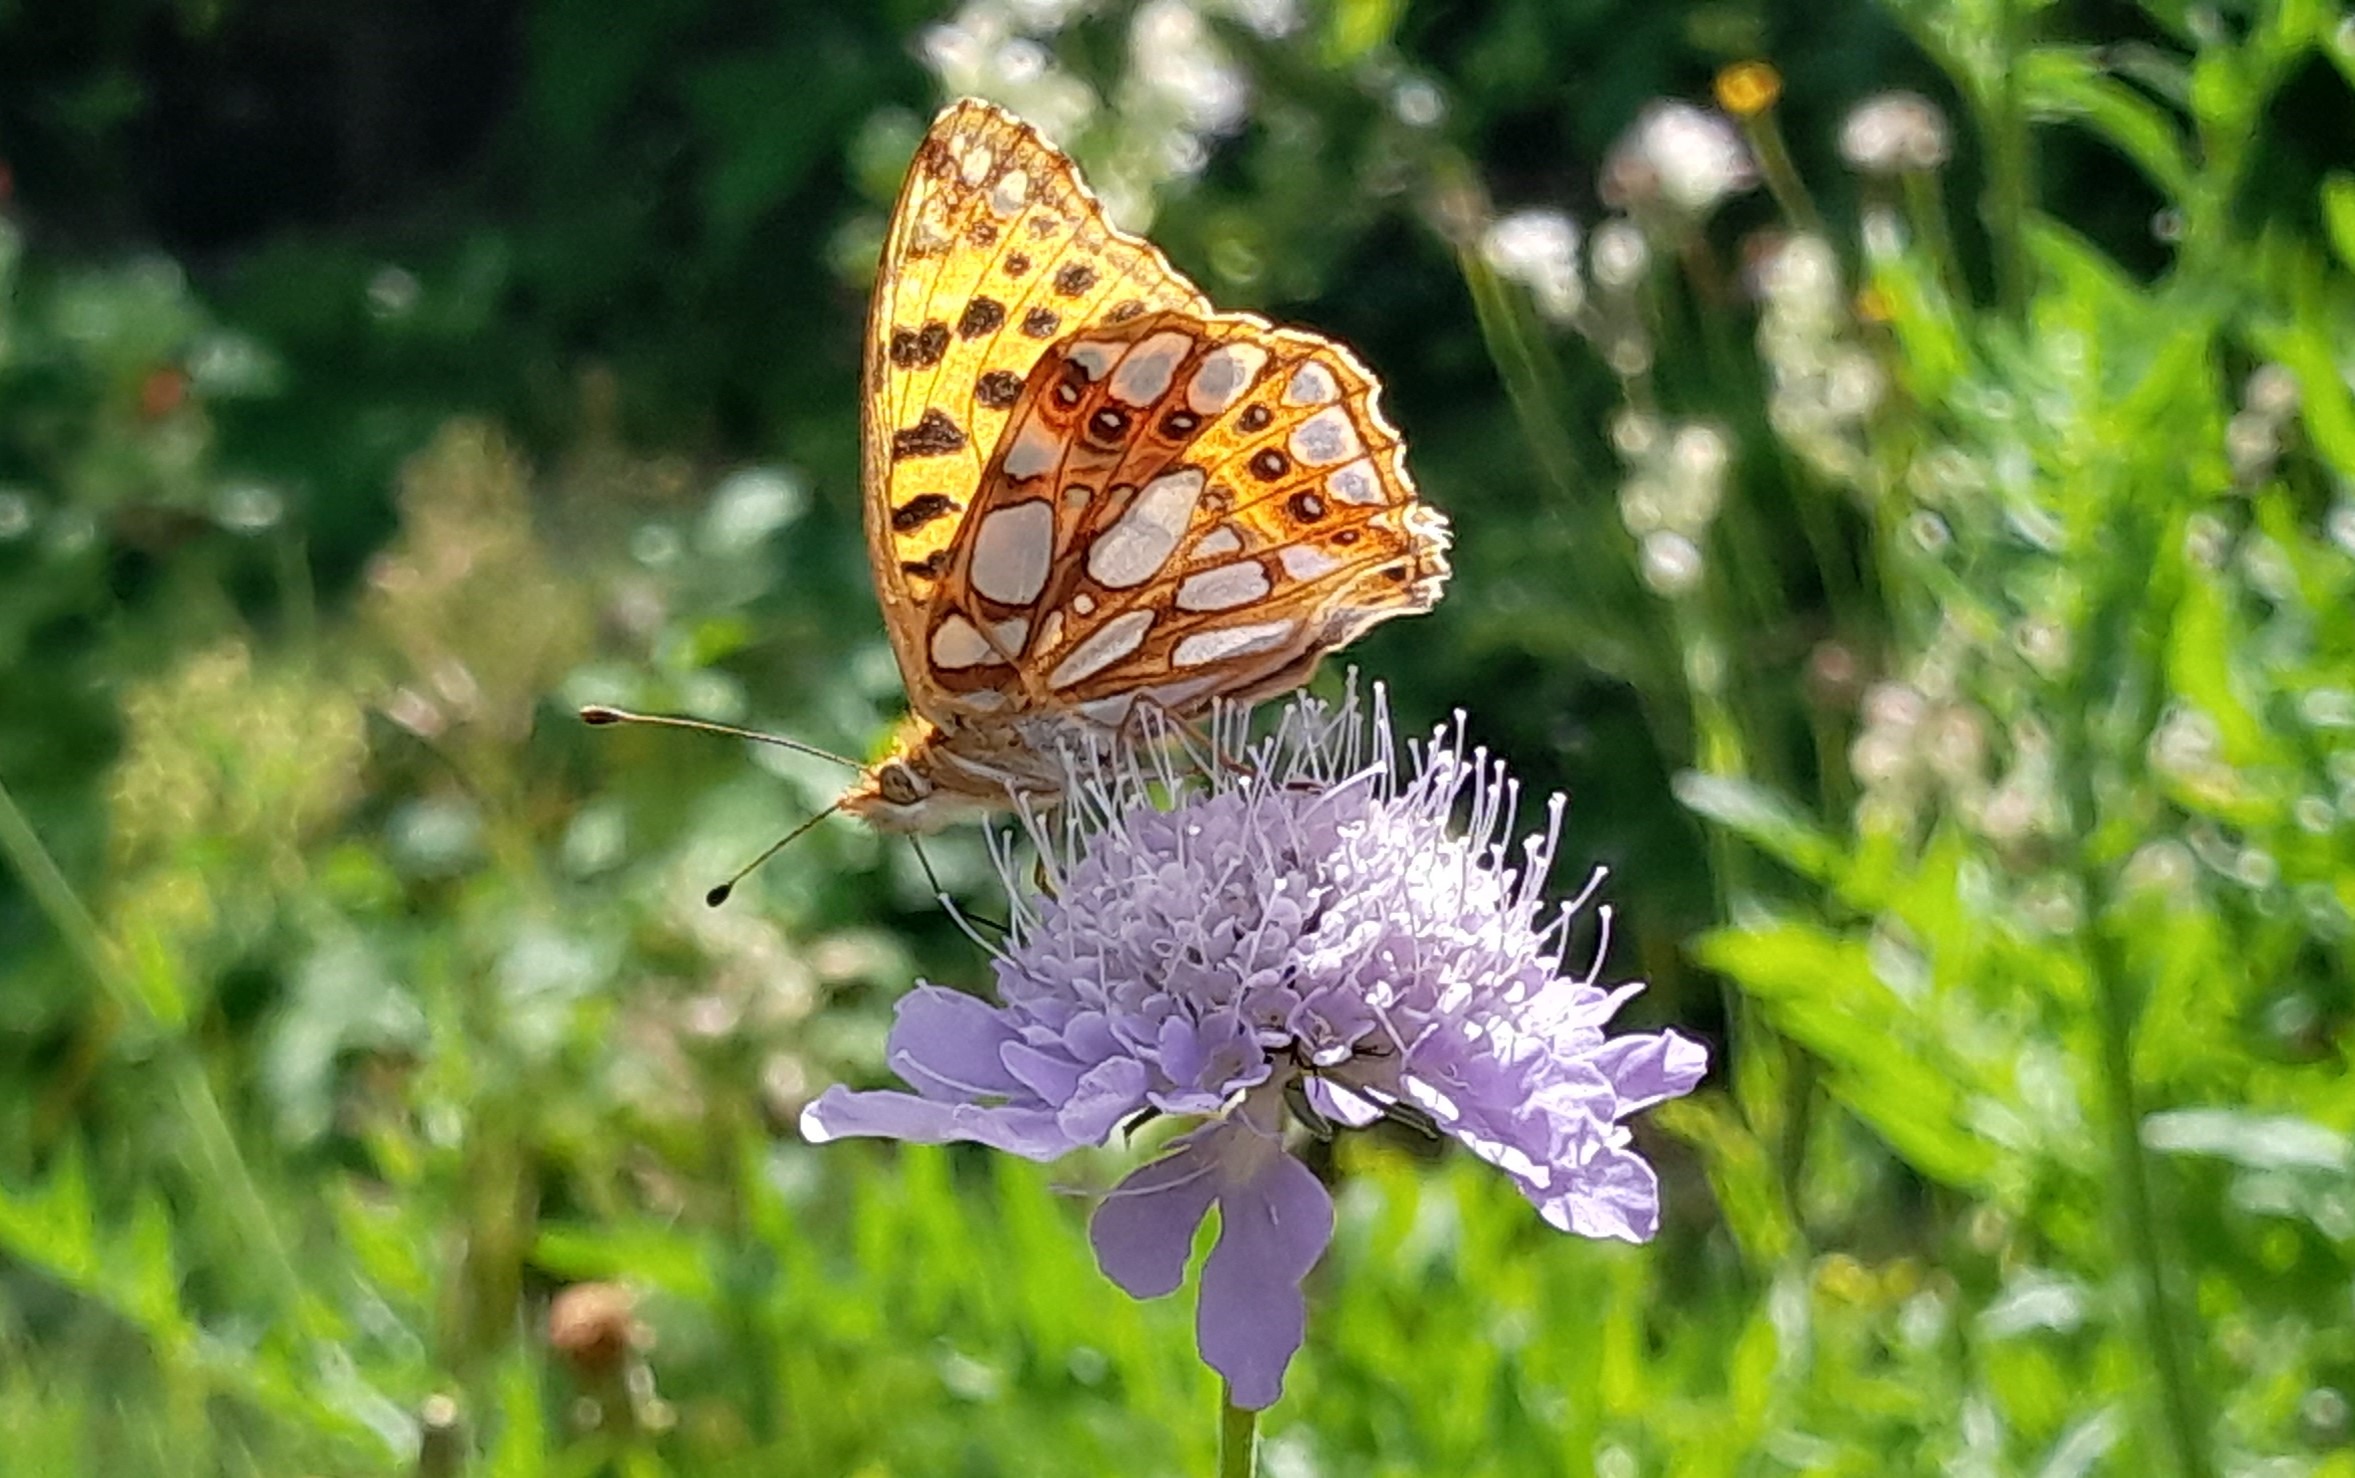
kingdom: Animalia
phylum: Arthropoda
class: Insecta
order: Lepidoptera
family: Nymphalidae
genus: Issoria
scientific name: Issoria lathonia
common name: Storplettet perlemorsommerfugl
